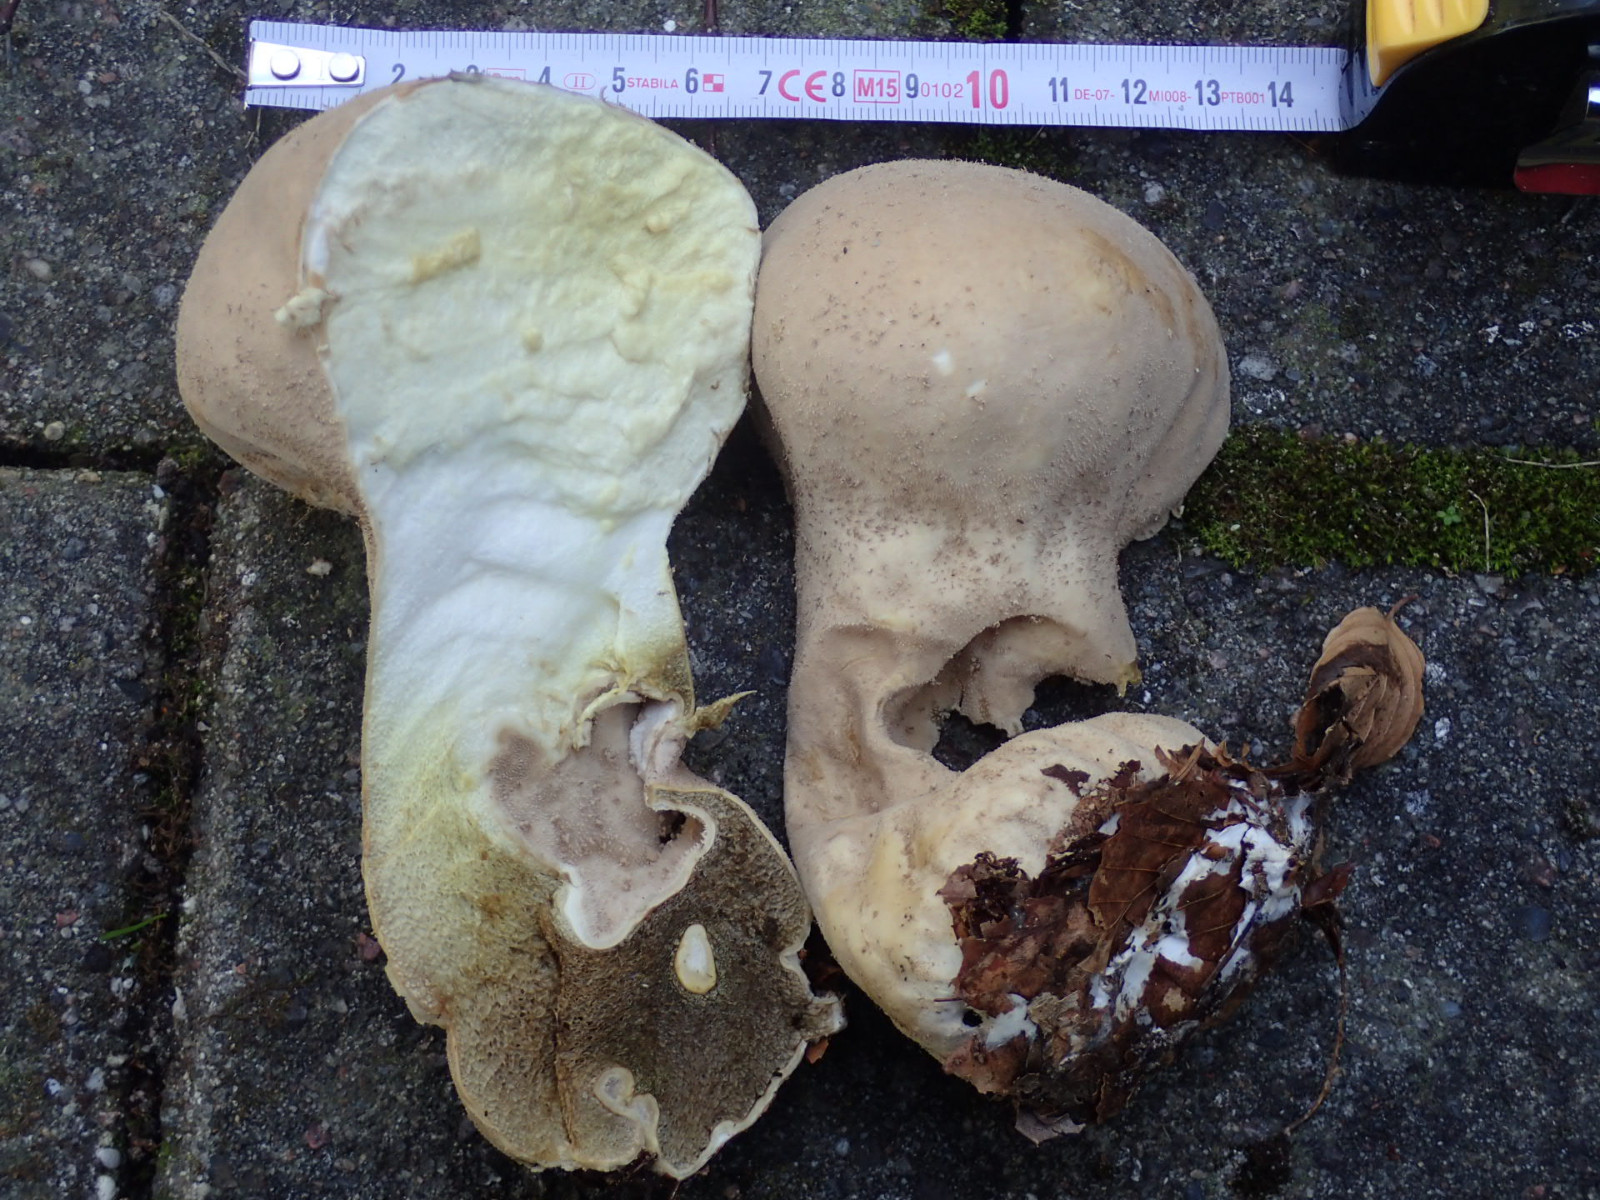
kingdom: Fungi
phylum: Basidiomycota
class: Agaricomycetes
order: Agaricales
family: Lycoperdaceae
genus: Lycoperdon
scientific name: Lycoperdon excipuliforme
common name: højstokket støvbold
